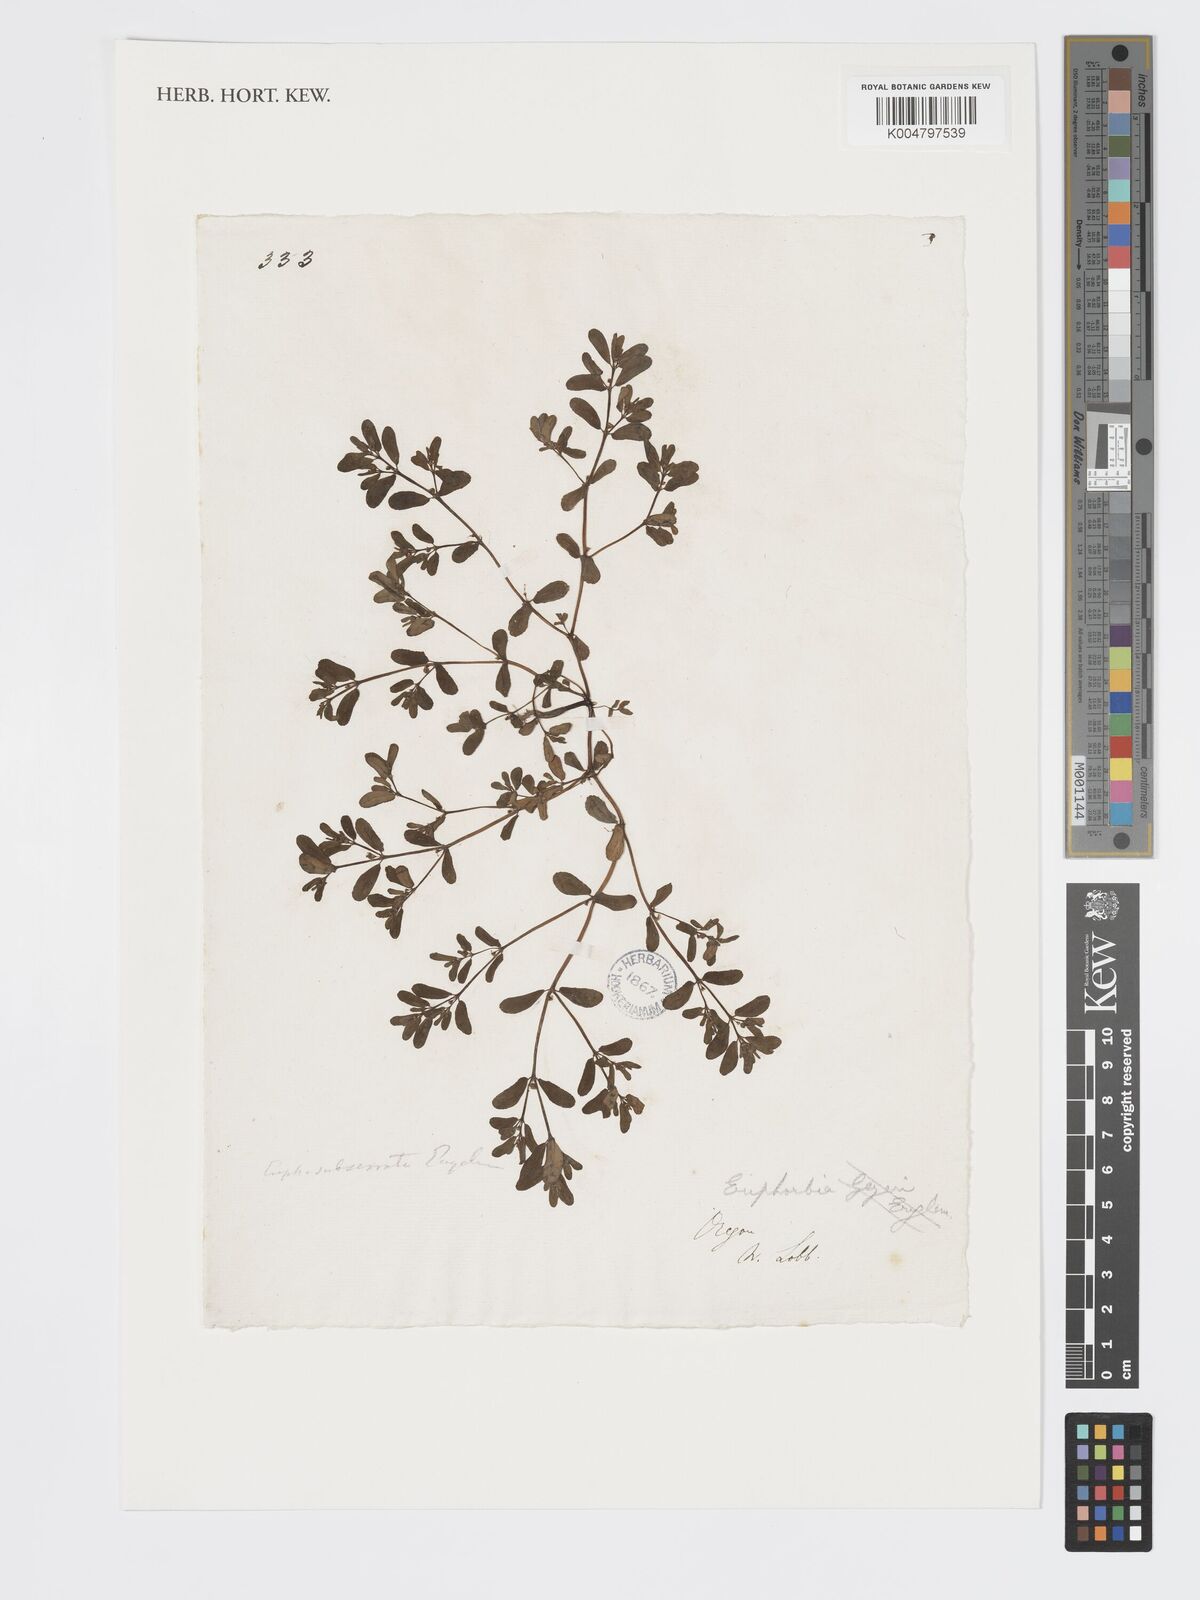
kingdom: Plantae
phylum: Tracheophyta
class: Magnoliopsida
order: Malpighiales
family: Euphorbiaceae
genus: Euphorbia
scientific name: Euphorbia
